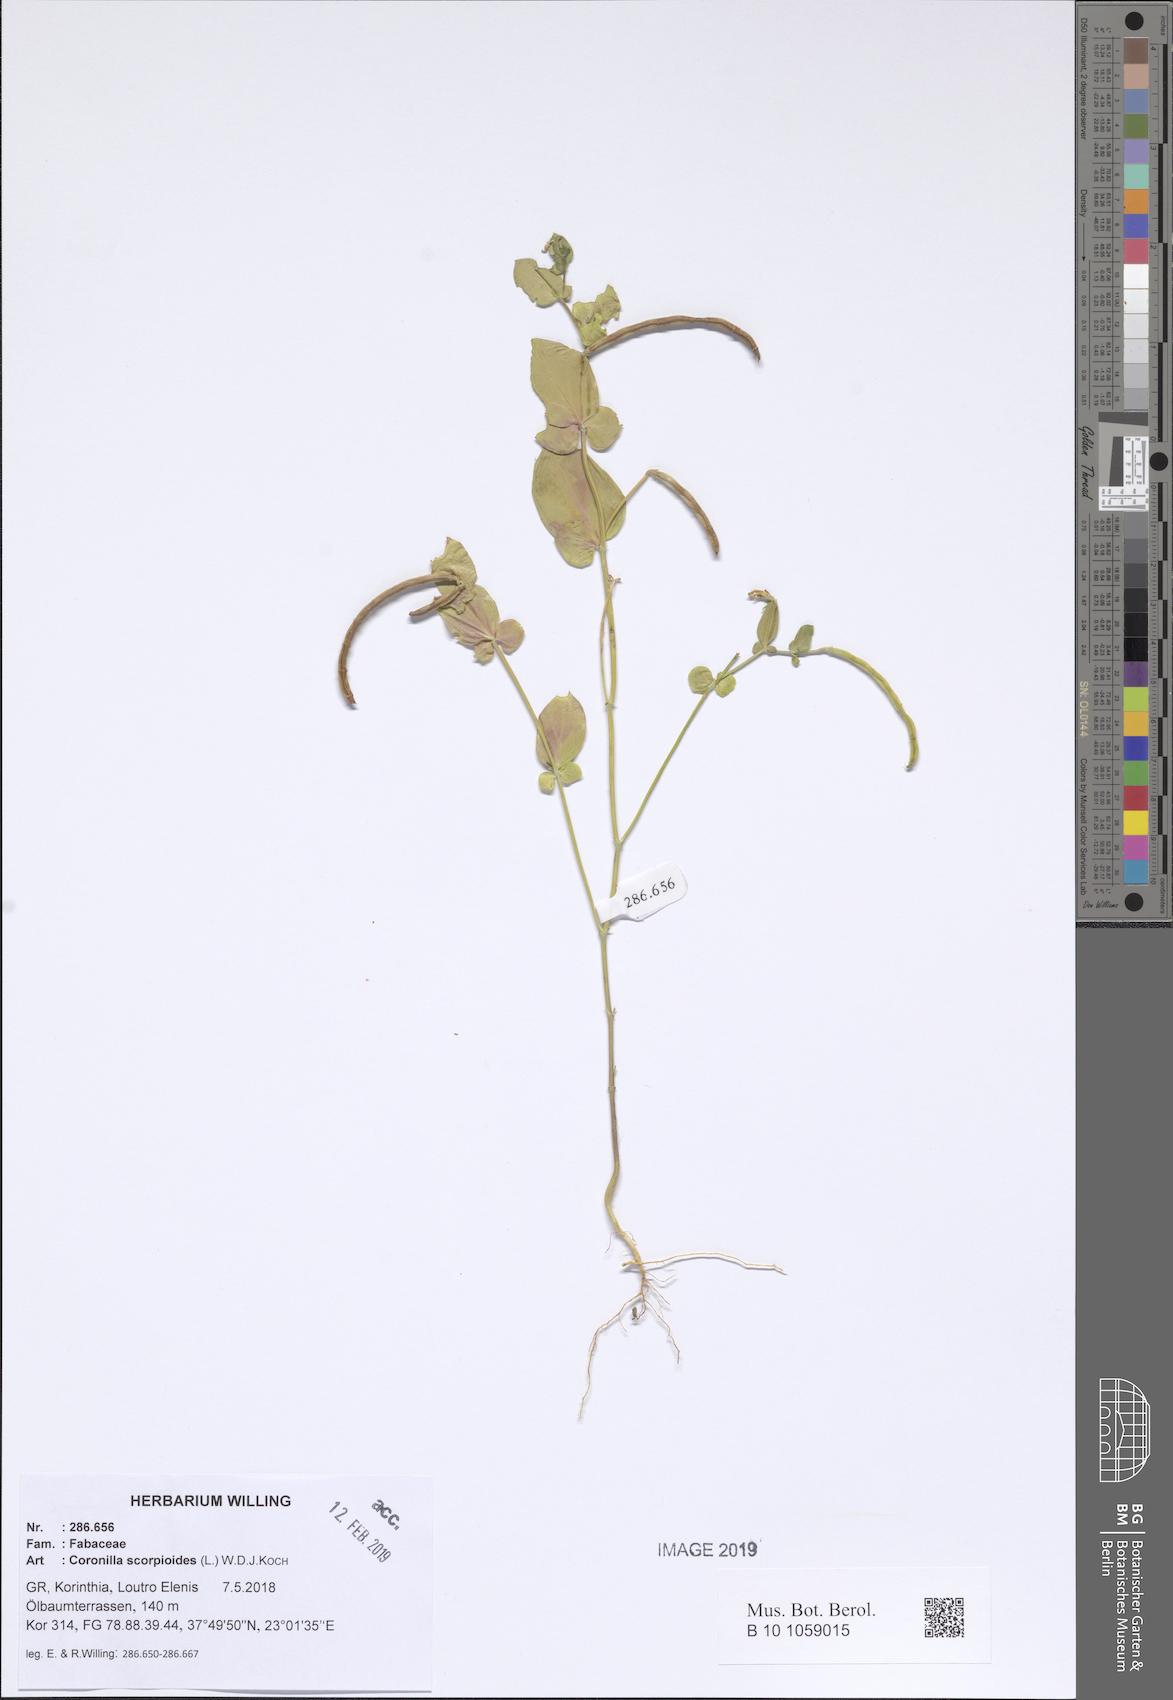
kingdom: Plantae
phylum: Tracheophyta
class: Magnoliopsida
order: Fabales
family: Fabaceae
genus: Coronilla
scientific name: Coronilla scorpioides
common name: Annual scorpion-vetch
